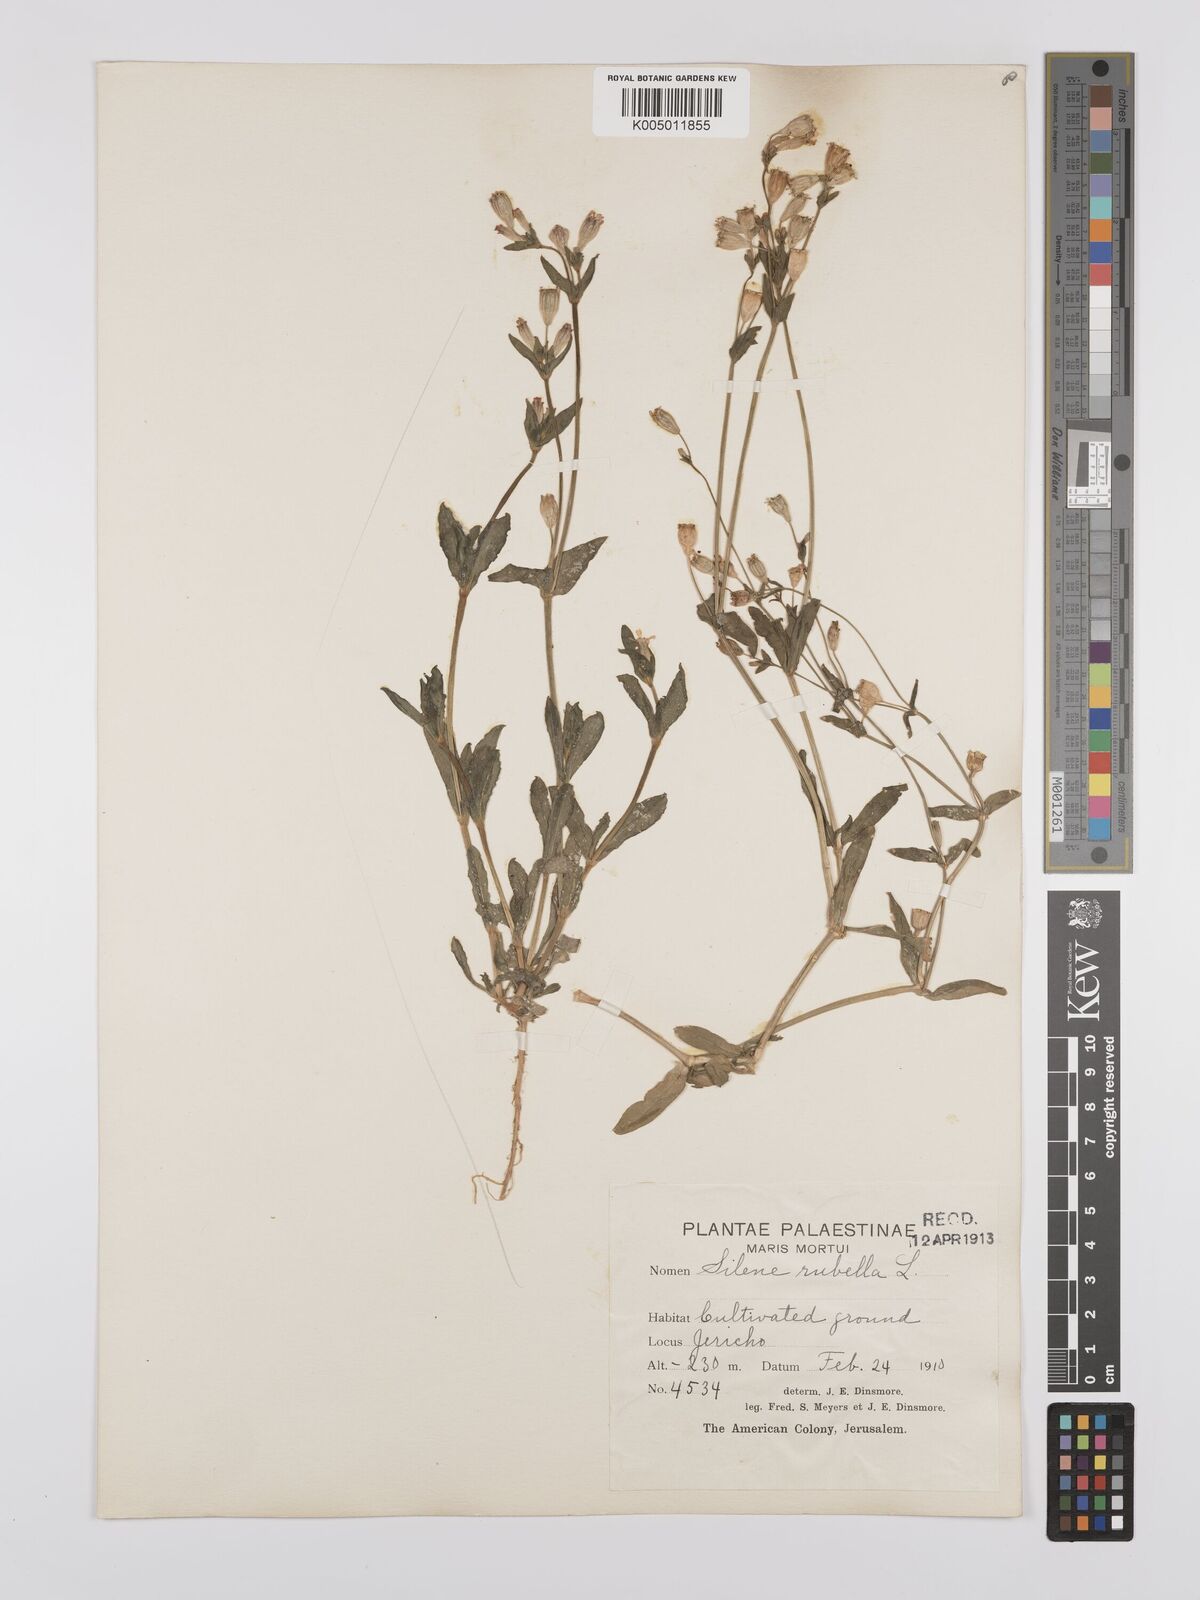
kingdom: Plantae
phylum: Tracheophyta
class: Magnoliopsida
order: Caryophyllales
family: Caryophyllaceae
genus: Silene
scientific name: Silene rubella
